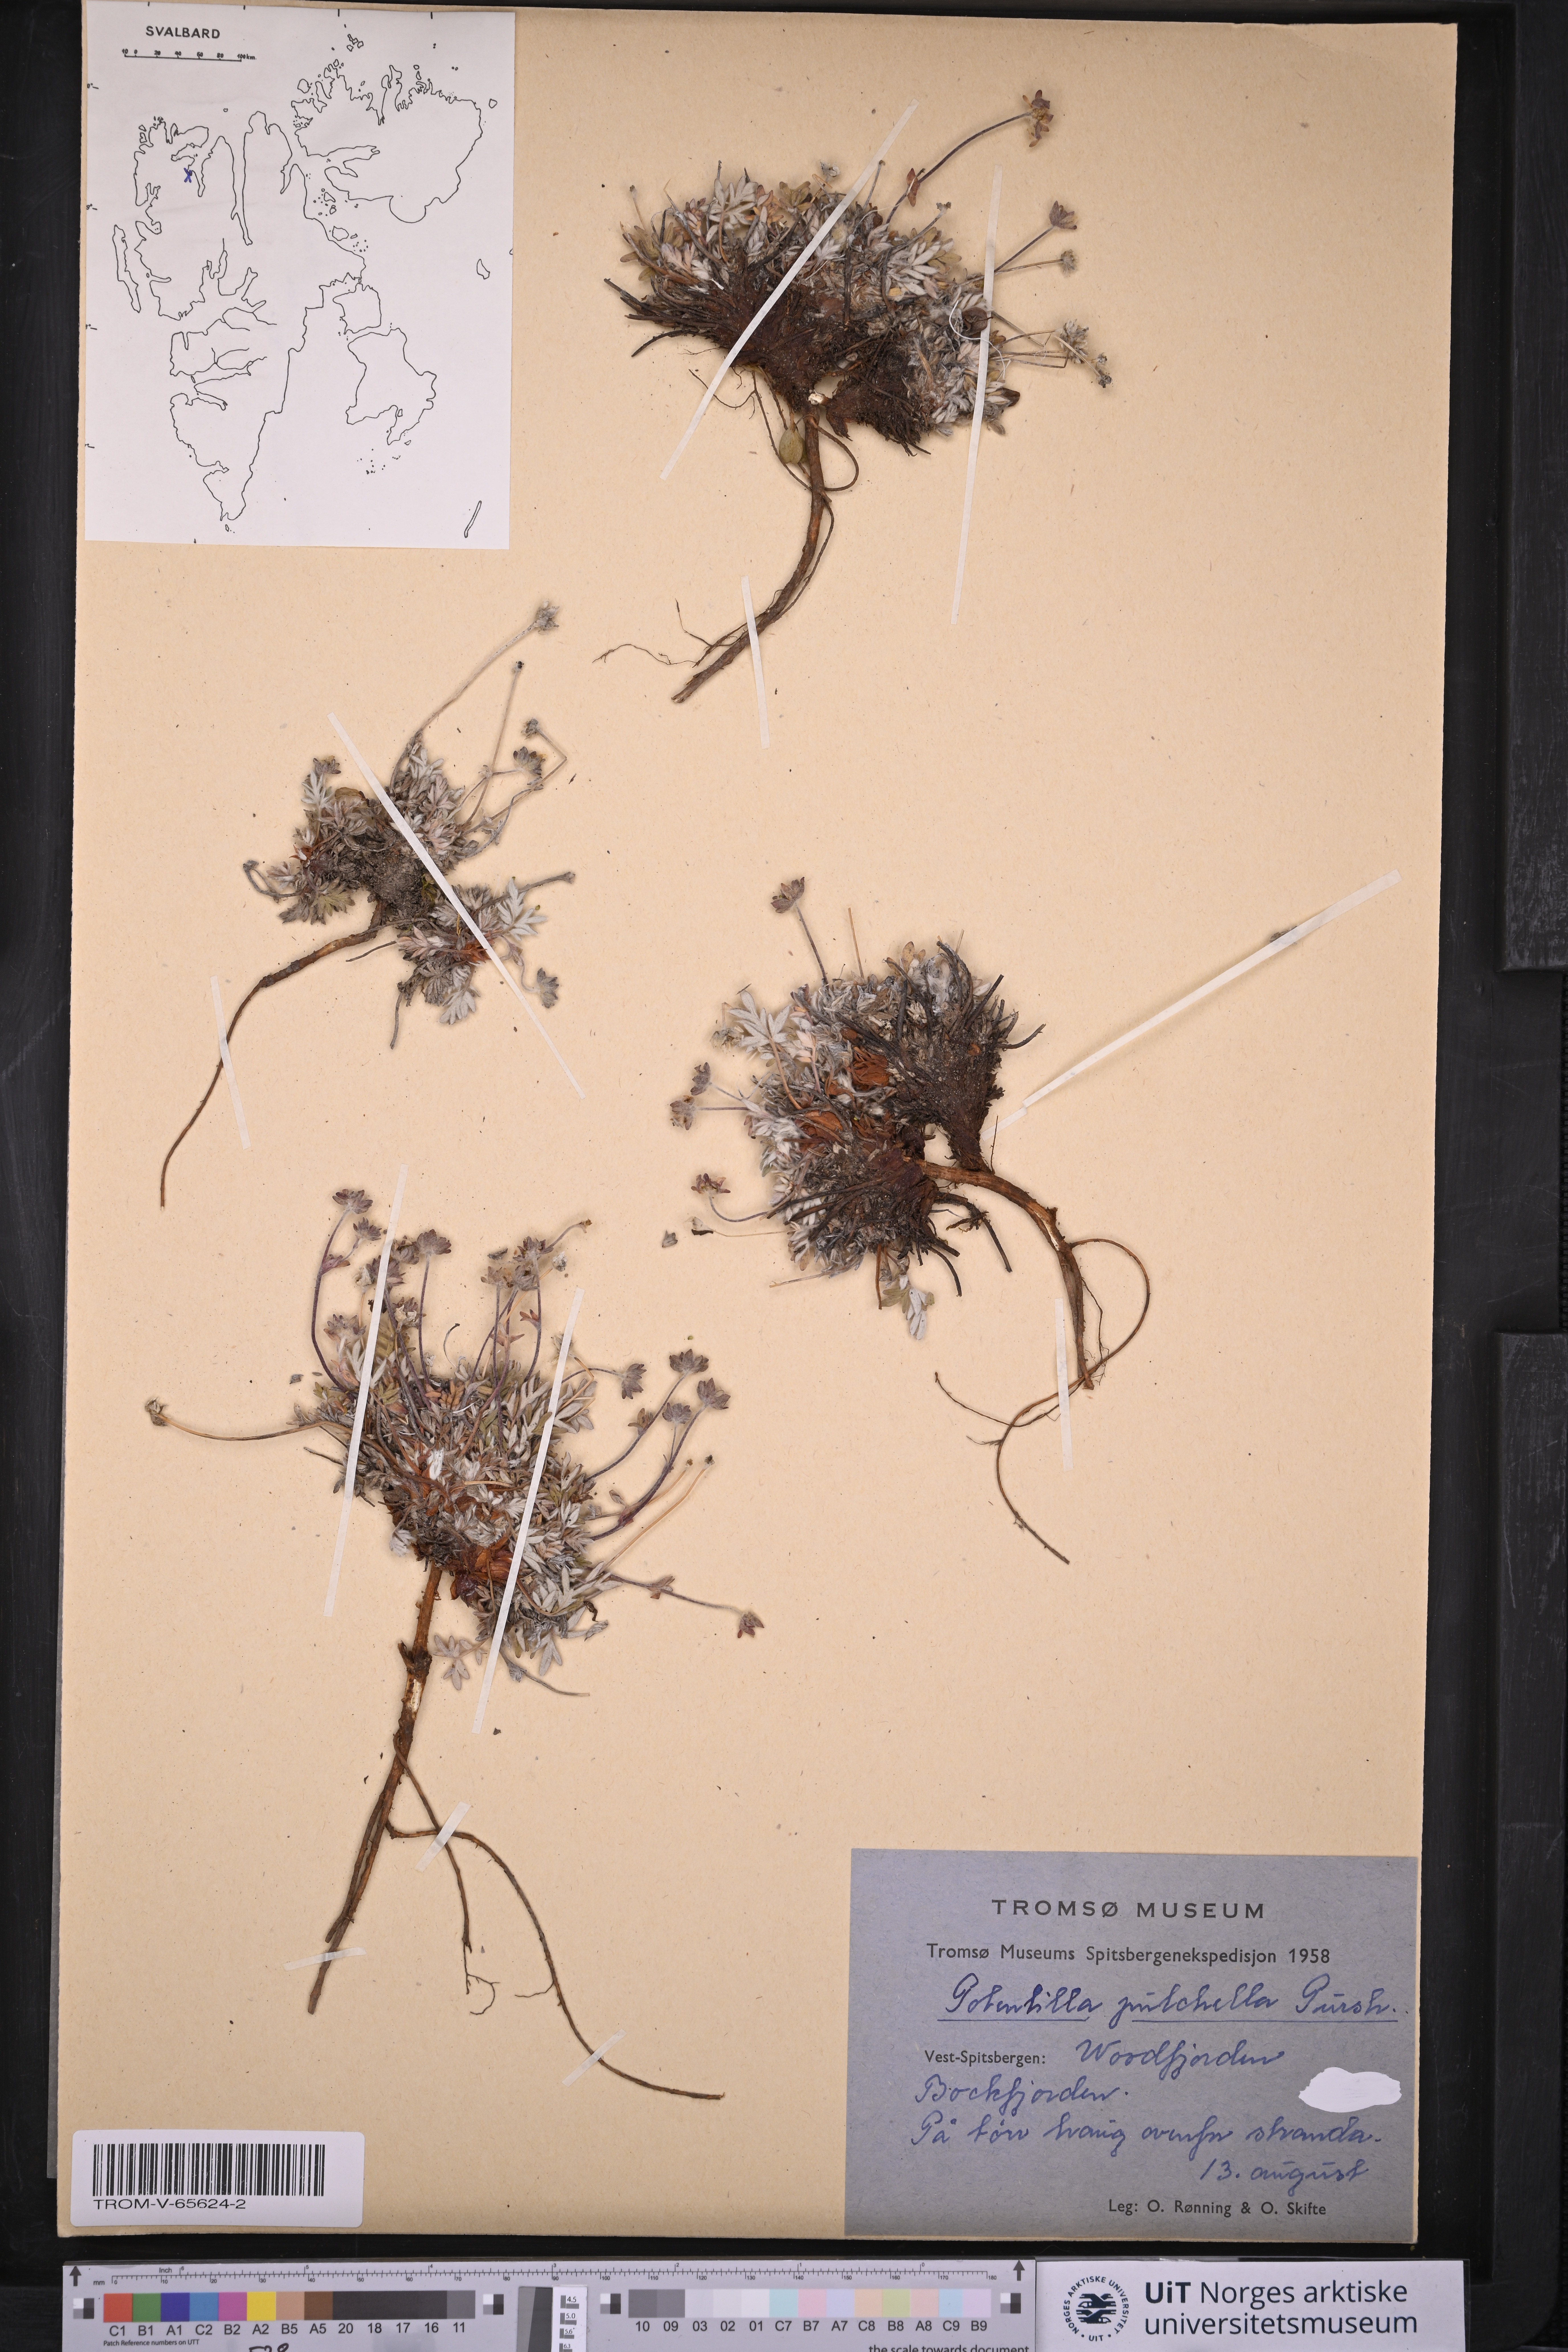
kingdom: Plantae
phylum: Tracheophyta
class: Magnoliopsida
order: Rosales
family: Rosaceae
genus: Potentilla
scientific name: Potentilla pulchella
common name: Pretty cinquefoil
